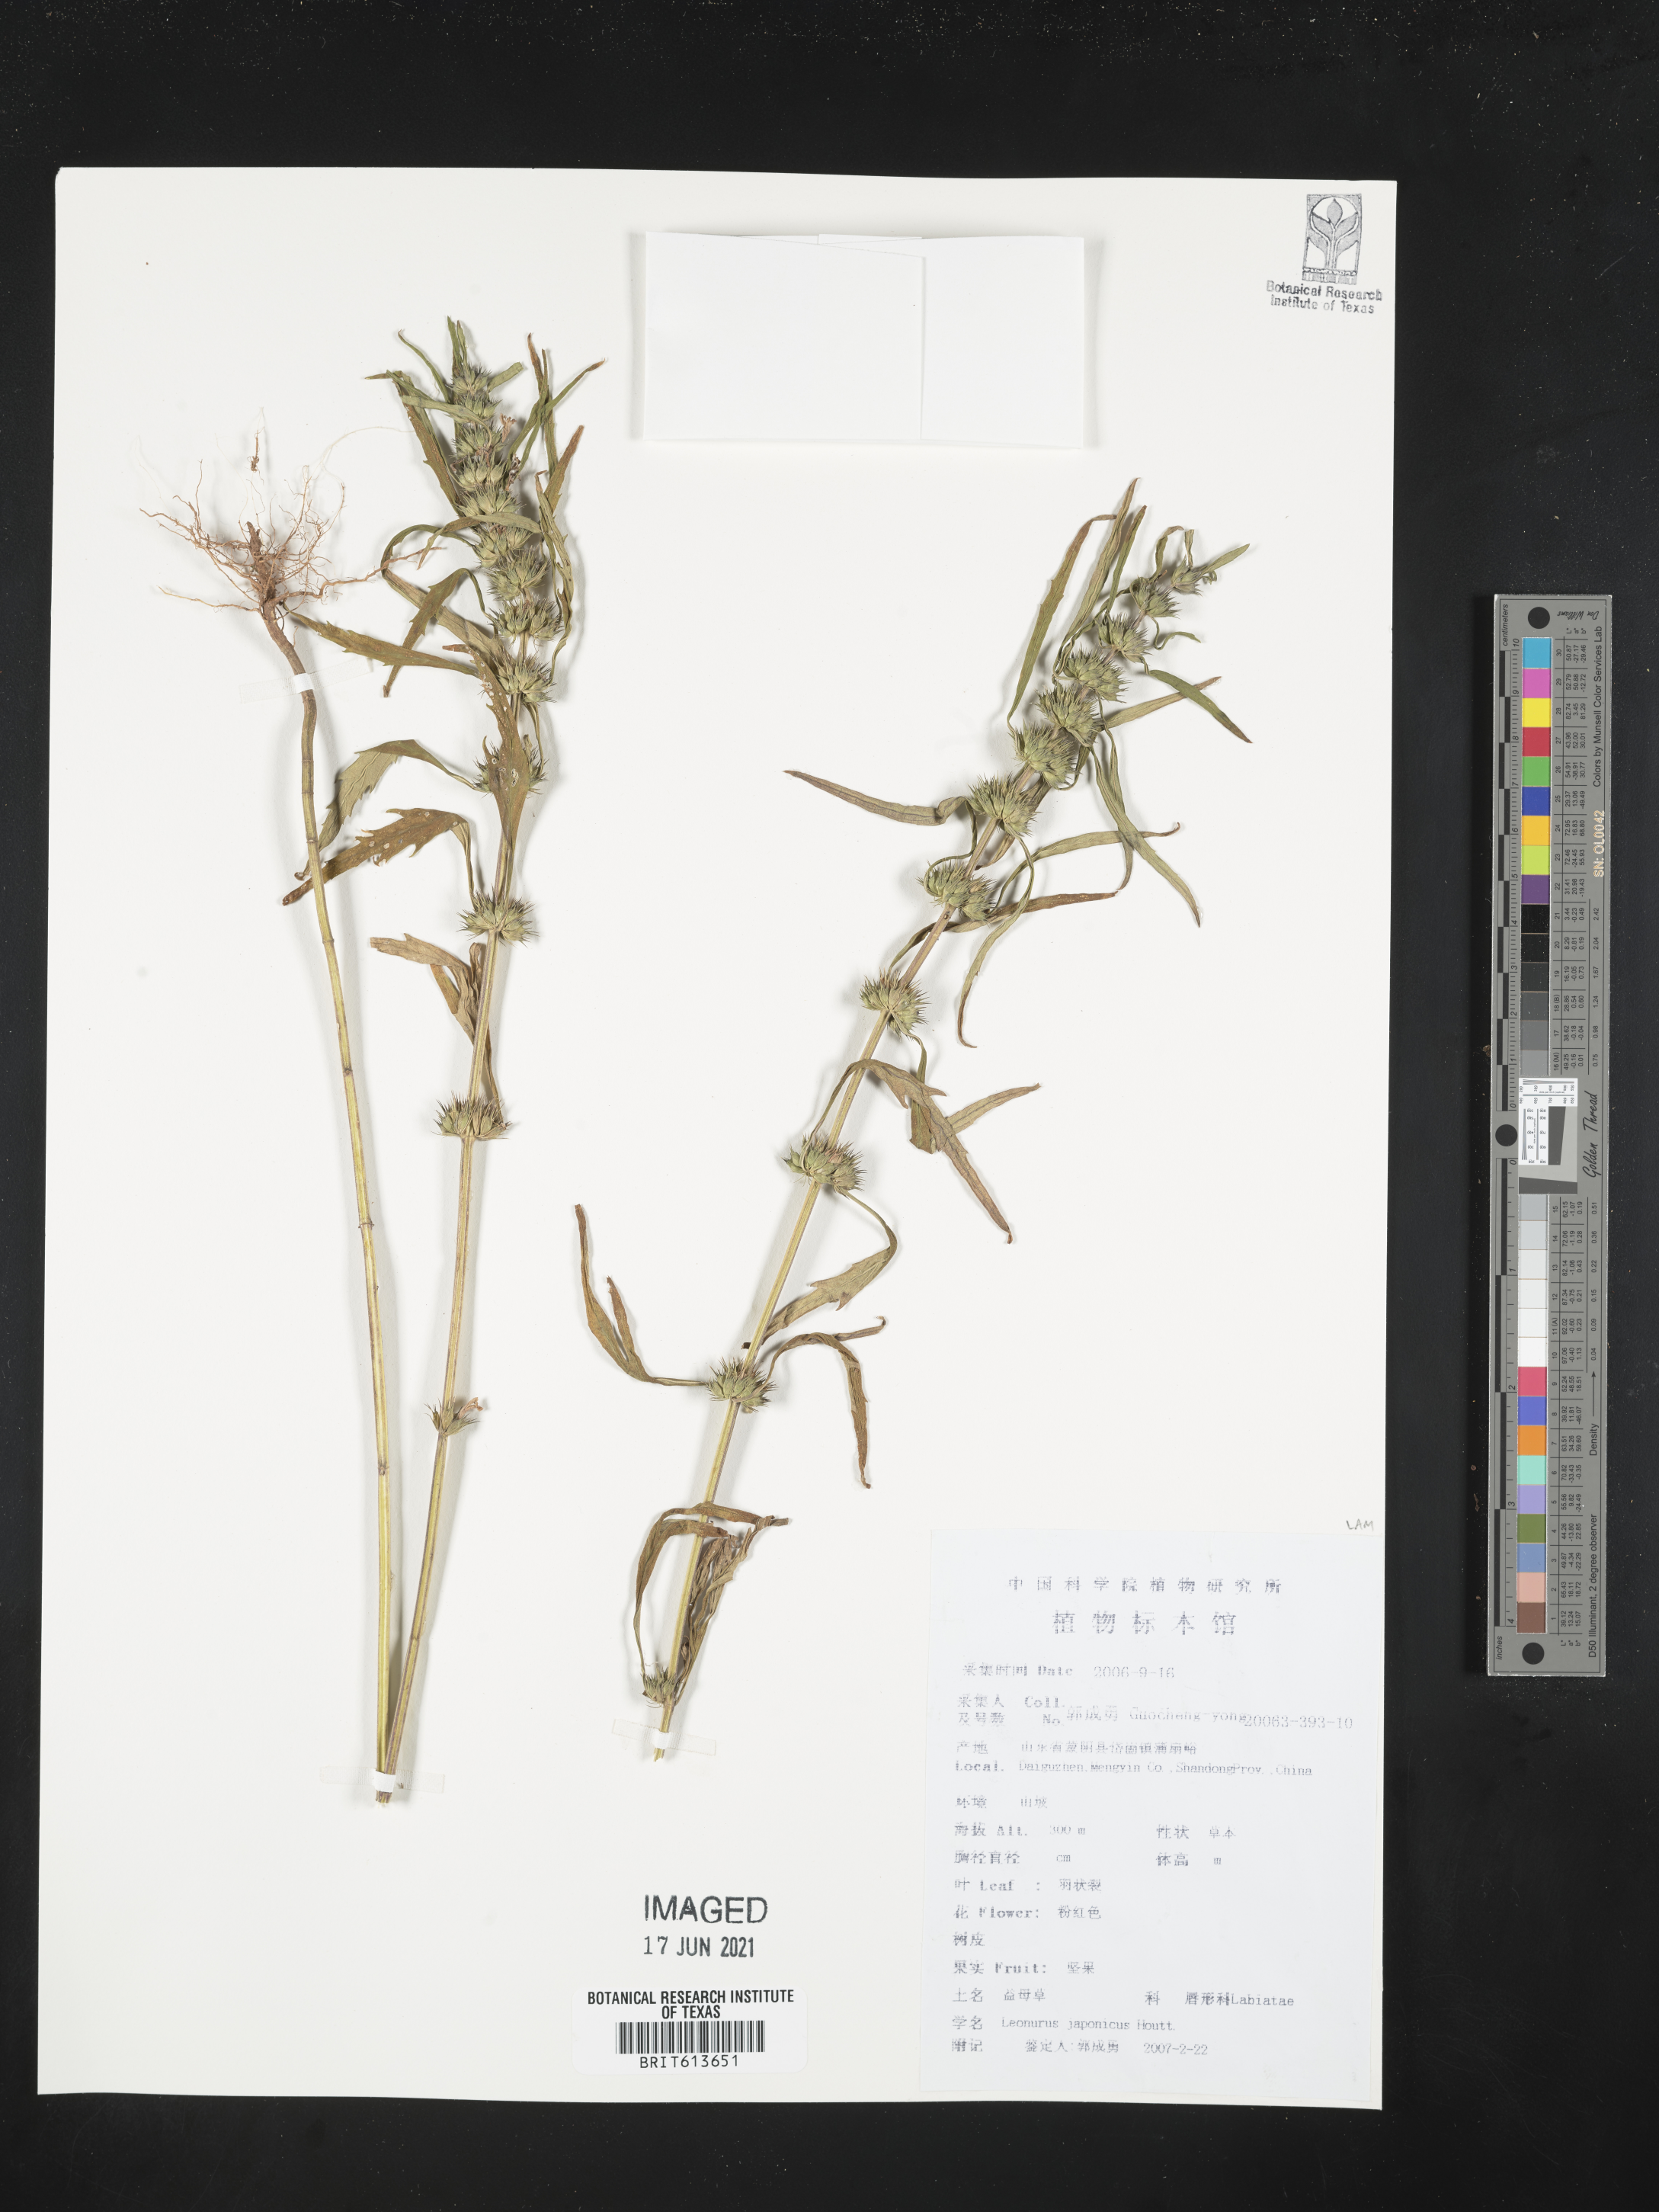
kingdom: Plantae
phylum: Tracheophyta
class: Magnoliopsida
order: Lamiales
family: Lamiaceae
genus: Leonurus
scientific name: Leonurus japonicus
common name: Honeyweed
